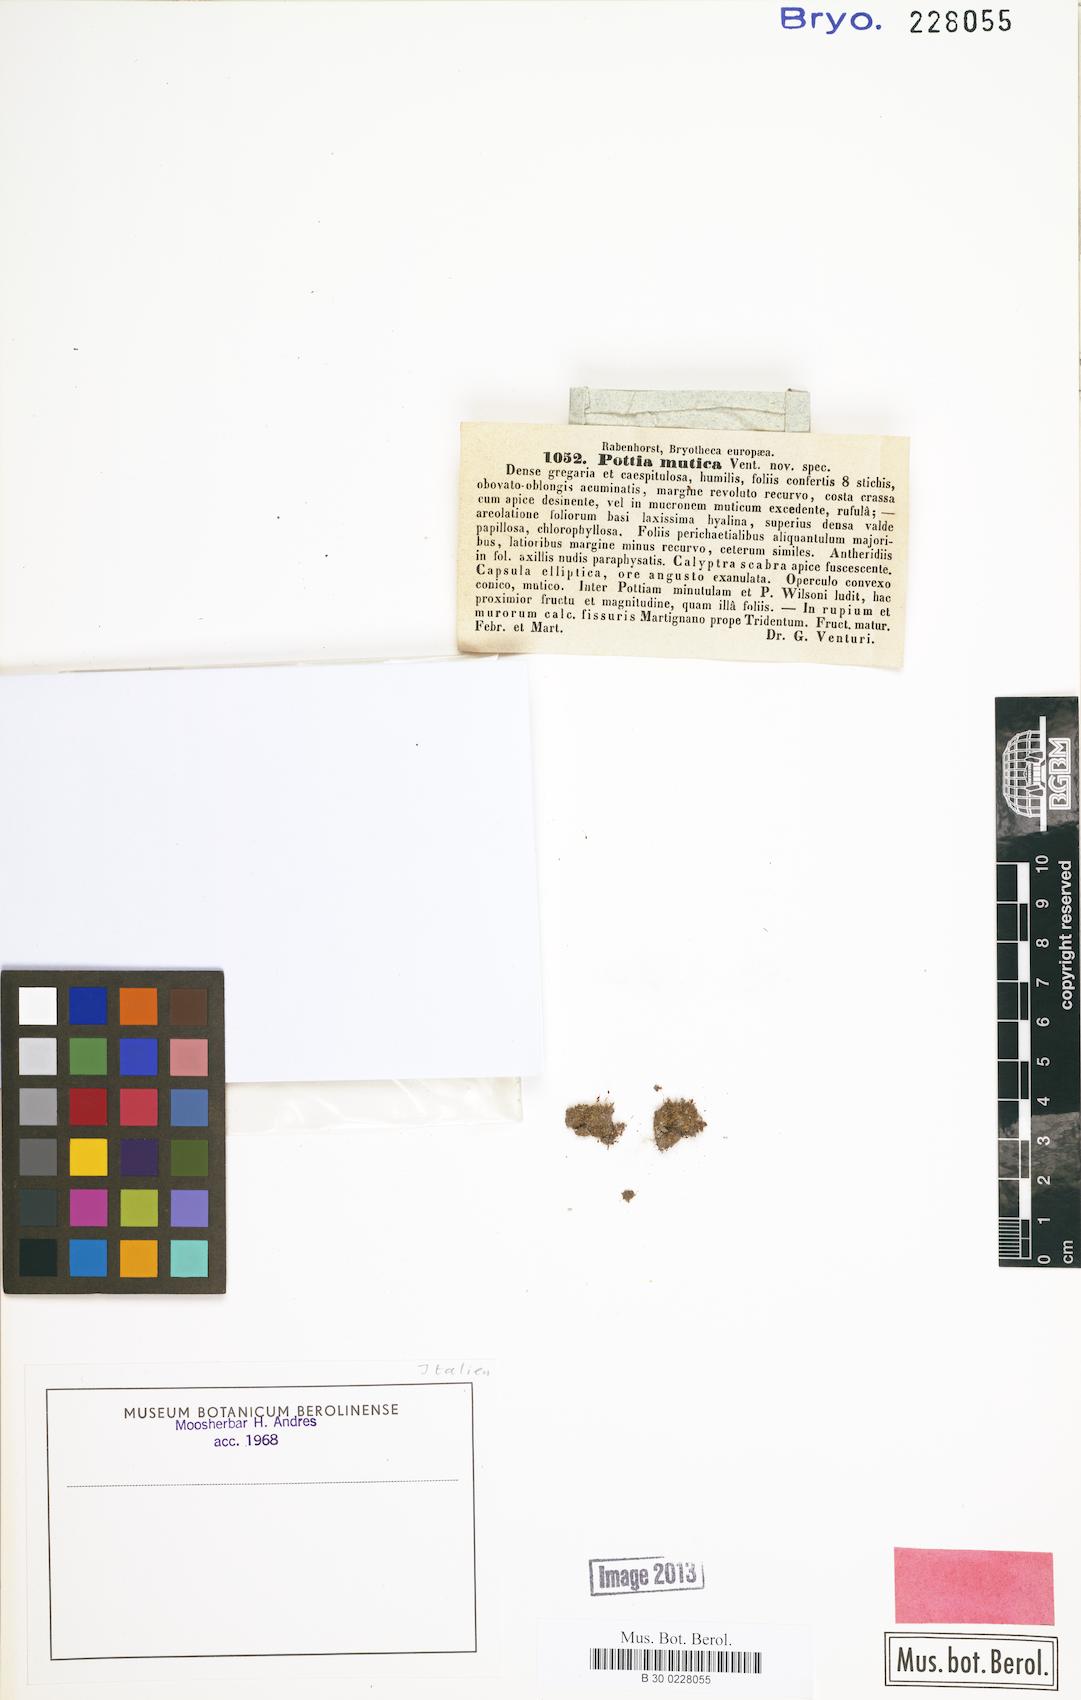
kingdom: Plantae
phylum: Bryophyta
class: Bryopsida
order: Pottiales
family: Pottiaceae
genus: Microbryum
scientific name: Microbryum muticum
